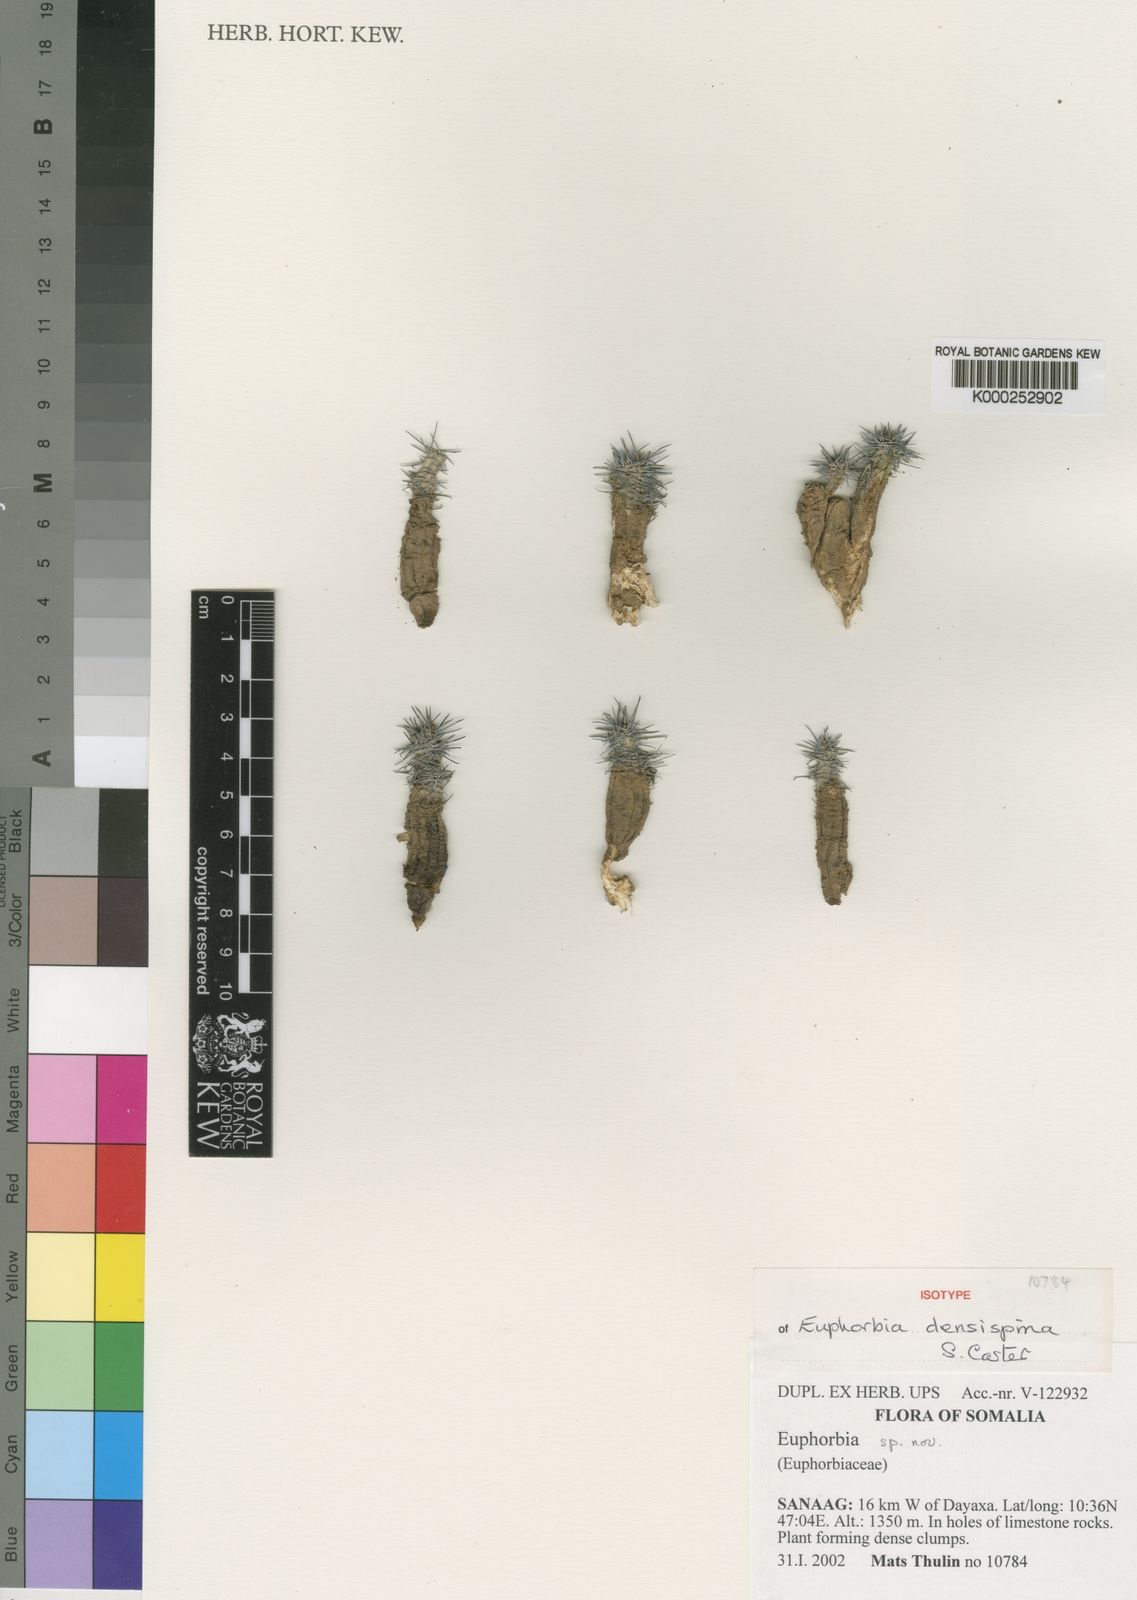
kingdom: Plantae
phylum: Tracheophyta
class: Magnoliopsida
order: Malpighiales
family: Euphorbiaceae
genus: Euphorbia
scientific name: Euphorbia densispina
